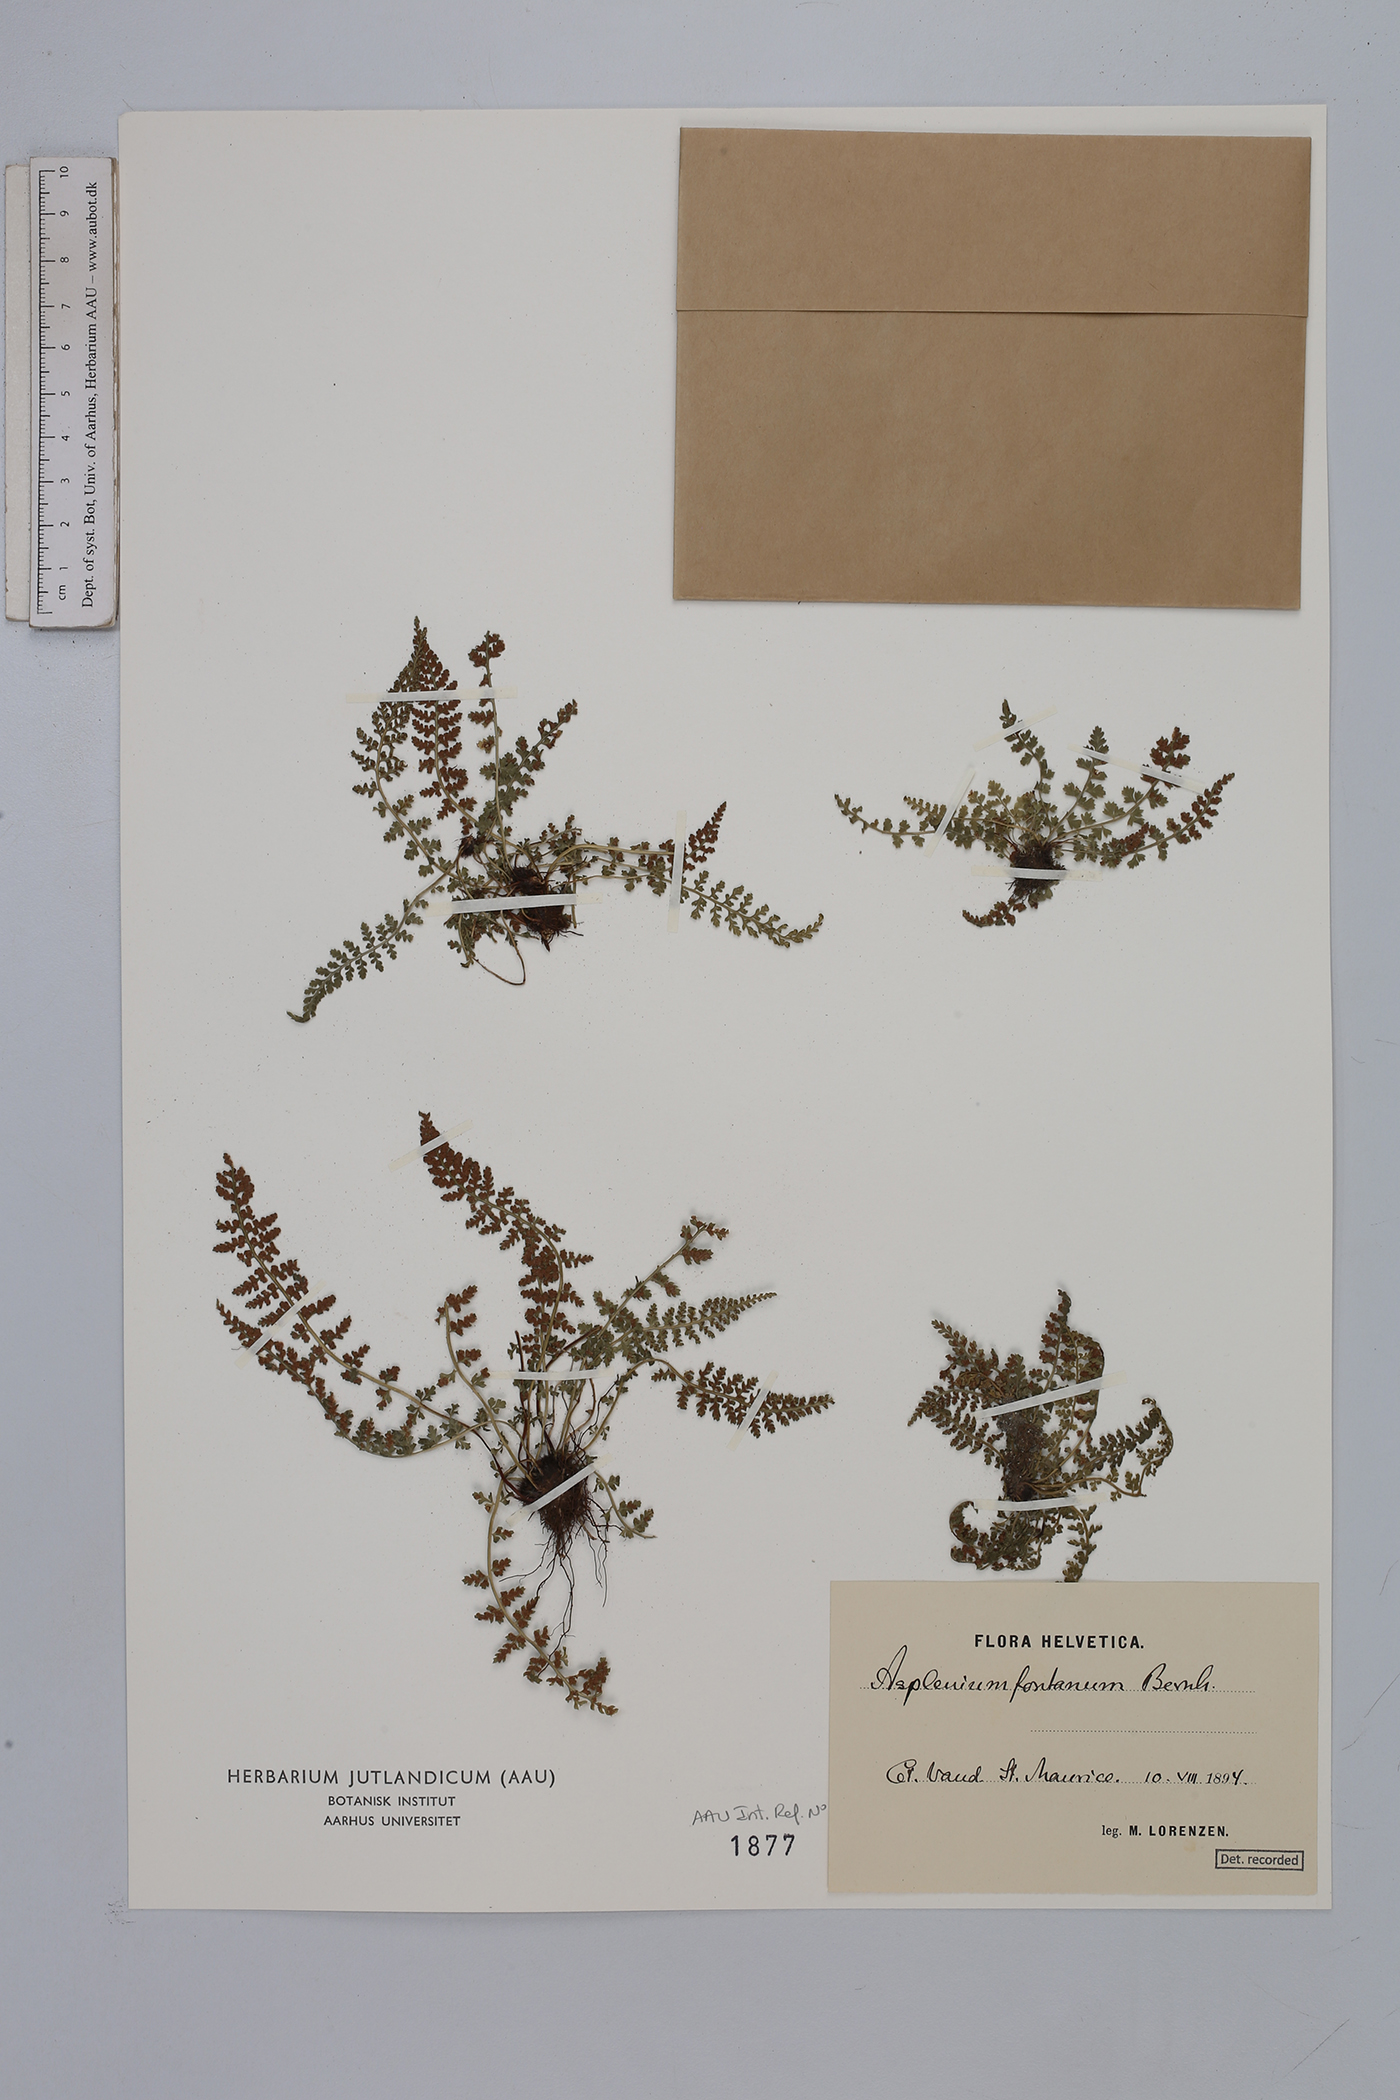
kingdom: Plantae
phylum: Tracheophyta
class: Polypodiopsida
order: Polypodiales
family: Aspleniaceae
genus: Asplenium
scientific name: Asplenium fontanum
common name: Fountain spleenwort
